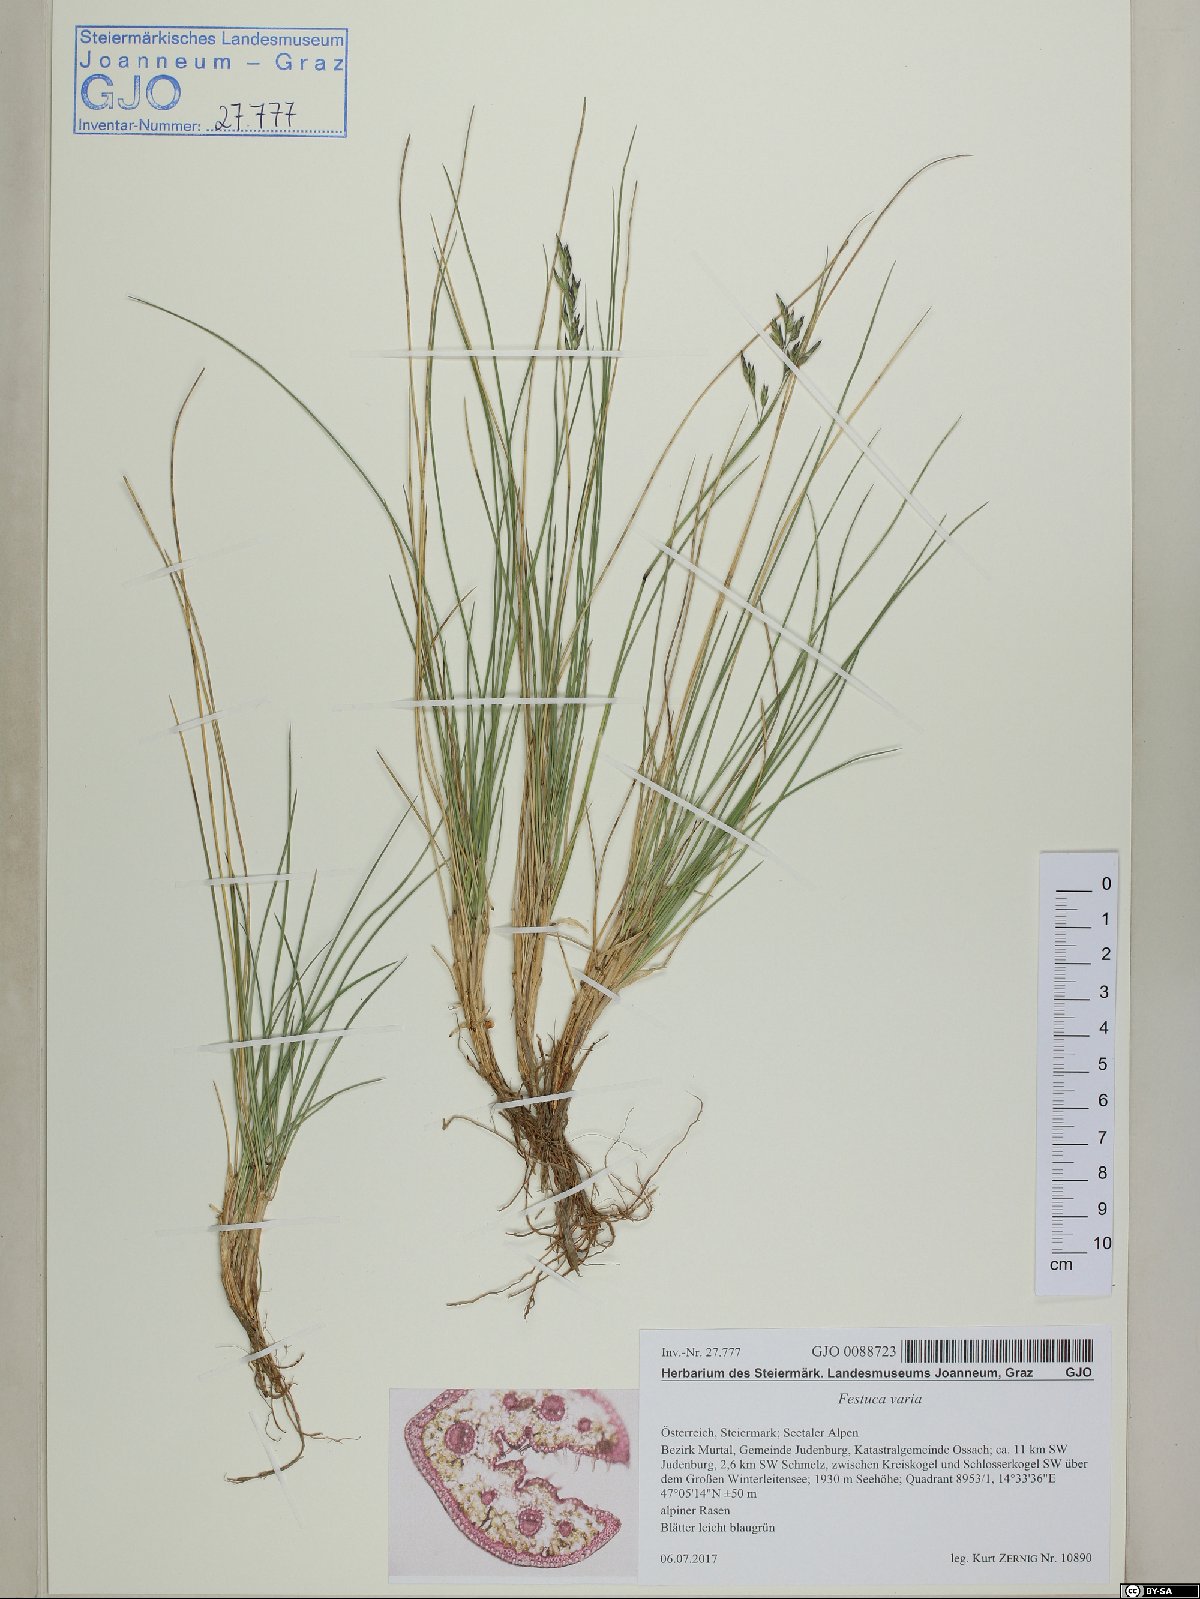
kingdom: Plantae
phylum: Tracheophyta
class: Liliopsida
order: Poales
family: Poaceae
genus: Festuca
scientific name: Festuca varia
